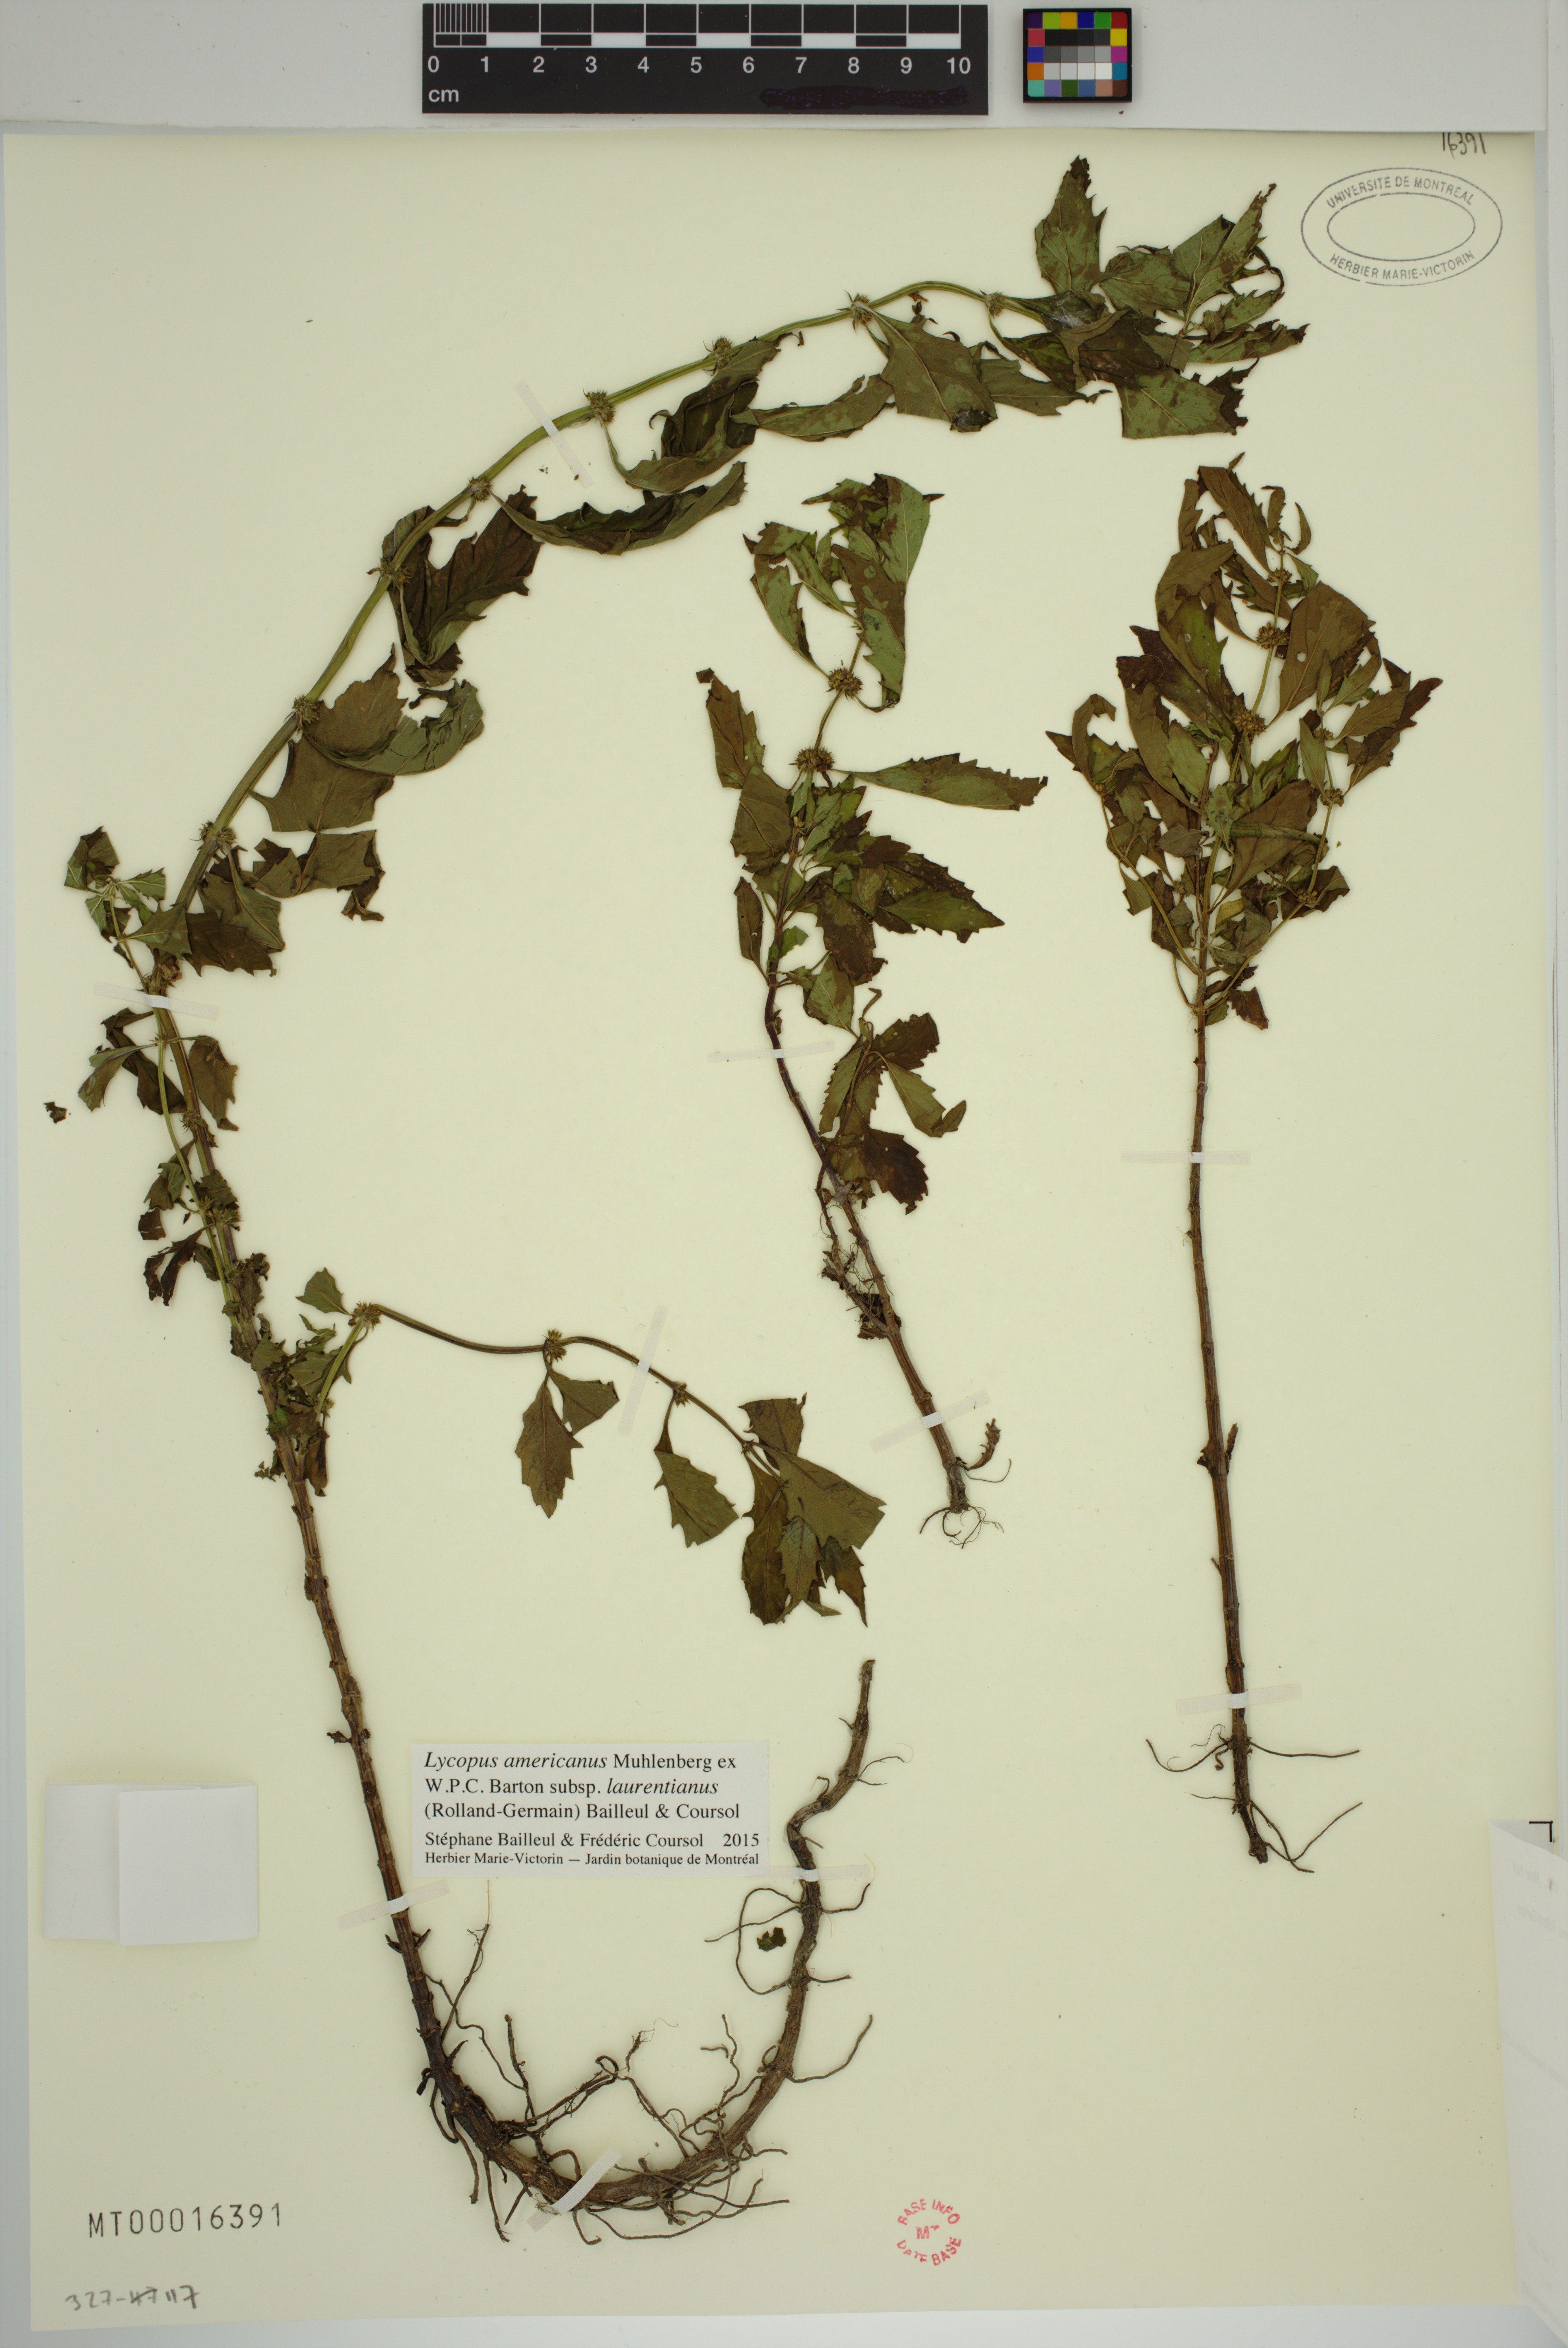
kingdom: Plantae
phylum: Tracheophyta
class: Magnoliopsida
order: Lamiales
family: Lamiaceae
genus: Lycopus
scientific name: Lycopus americanus
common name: American bugleweed
